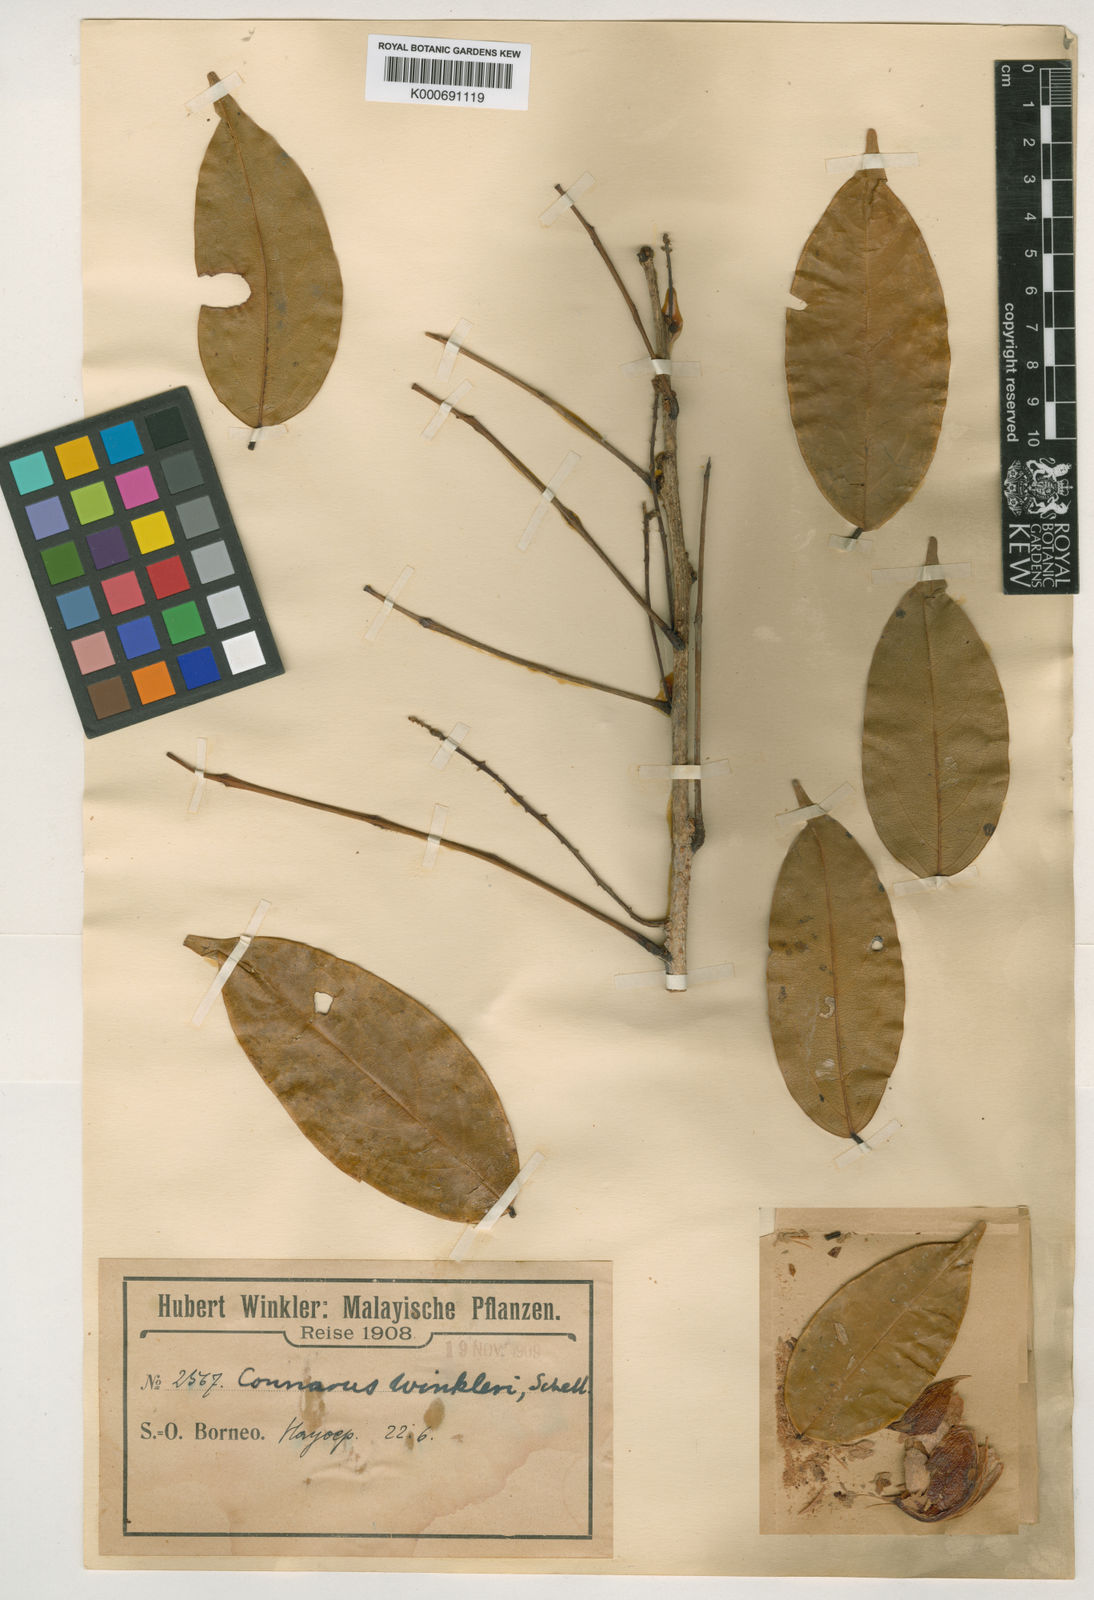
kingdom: Plantae
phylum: Tracheophyta
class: Magnoliopsida
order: Oxalidales
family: Connaraceae
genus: Connarus
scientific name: Connarus winkleri
